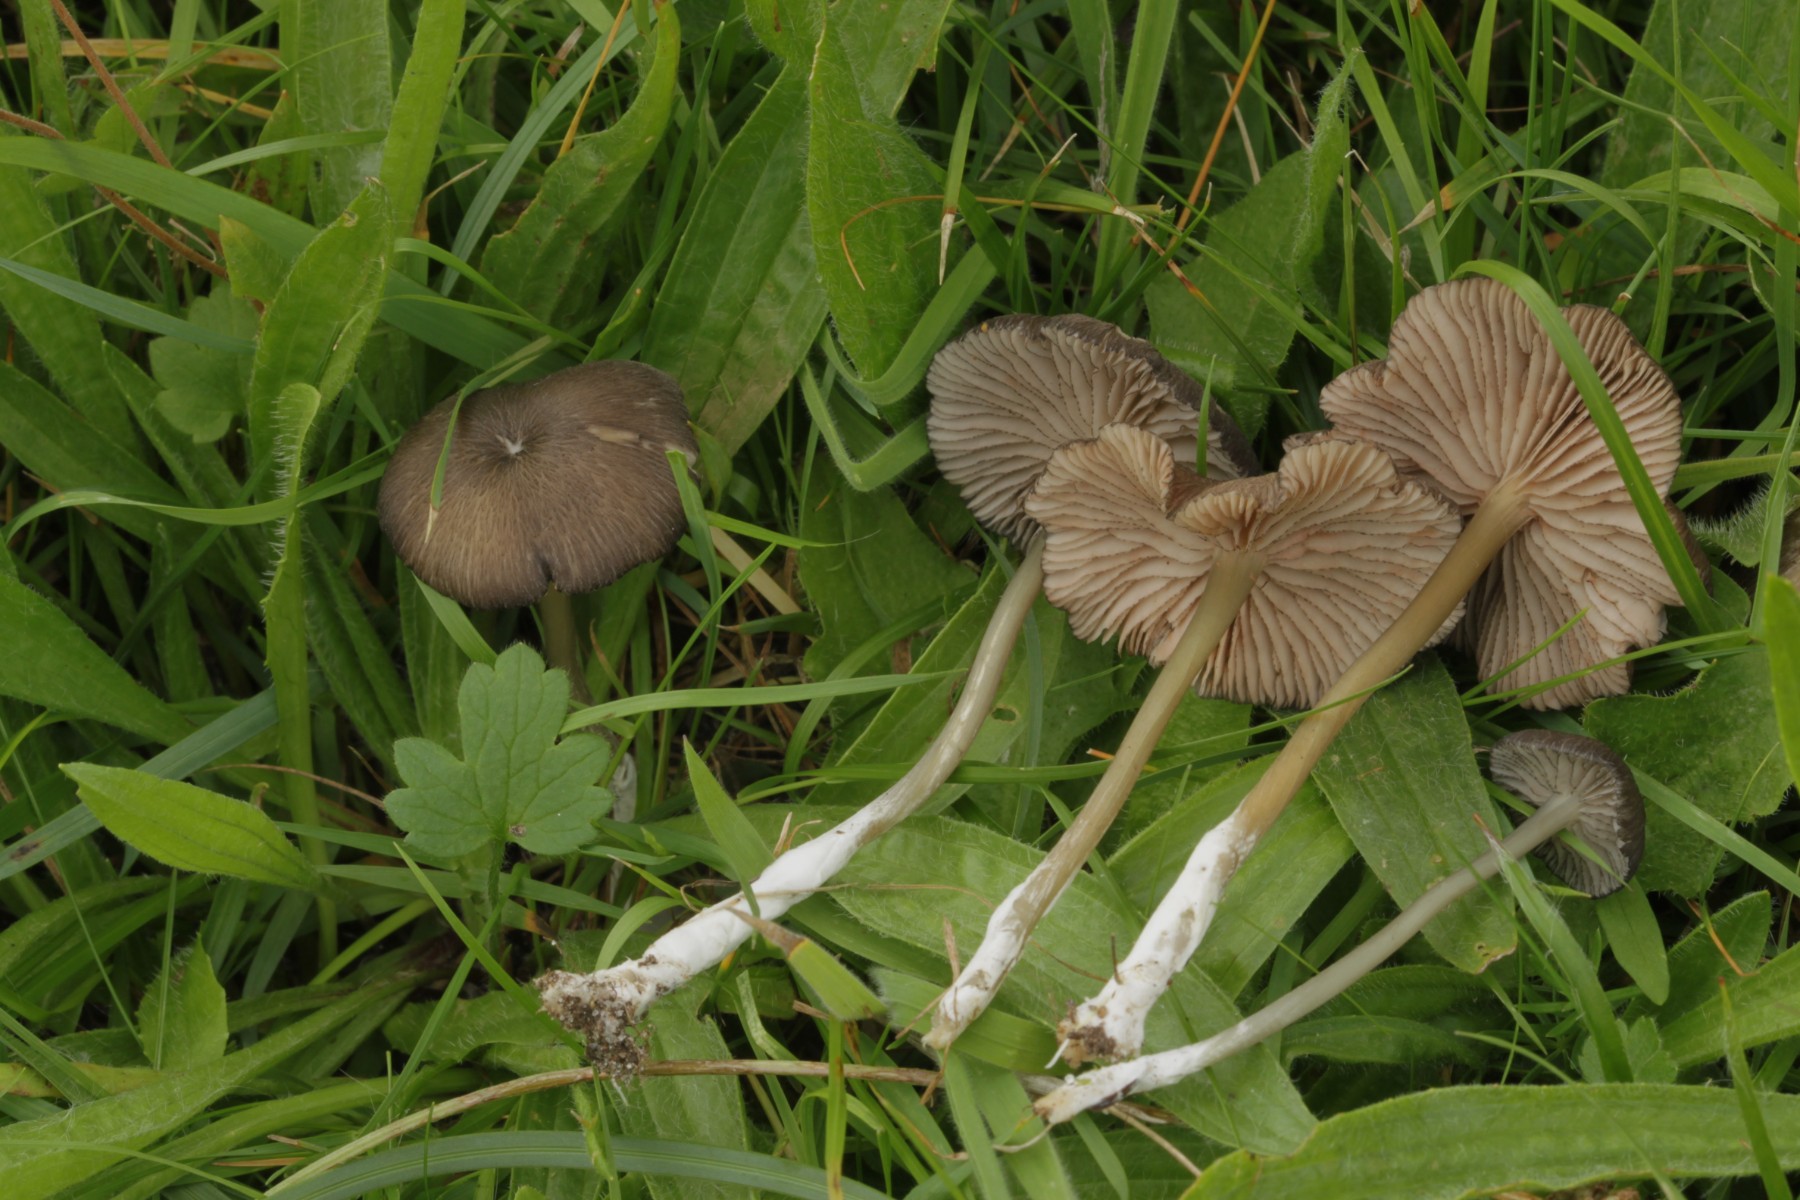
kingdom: Fungi
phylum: Basidiomycota
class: Agaricomycetes
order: Agaricales
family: Entolomataceae
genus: Entoloma
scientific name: Entoloma
